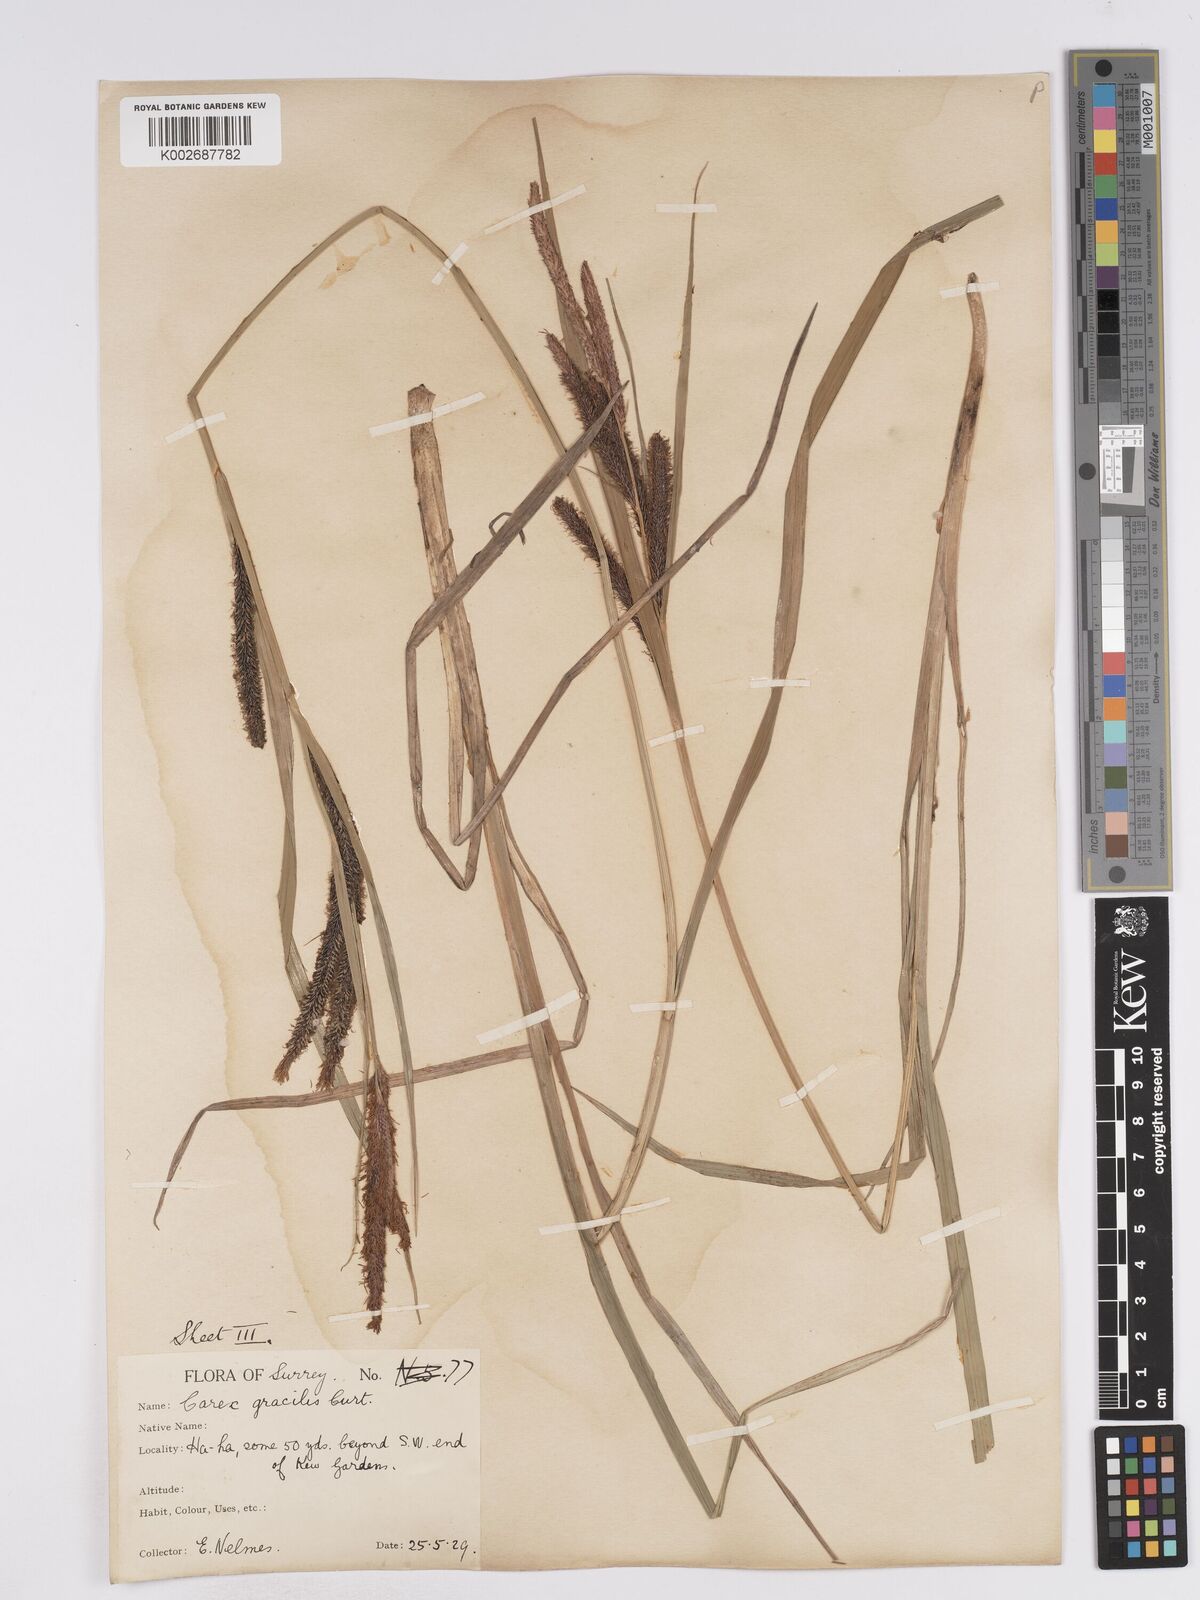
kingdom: Plantae
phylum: Tracheophyta
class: Liliopsida
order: Poales
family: Cyperaceae
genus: Carex
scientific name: Carex acuta
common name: Slender tufted-sedge
